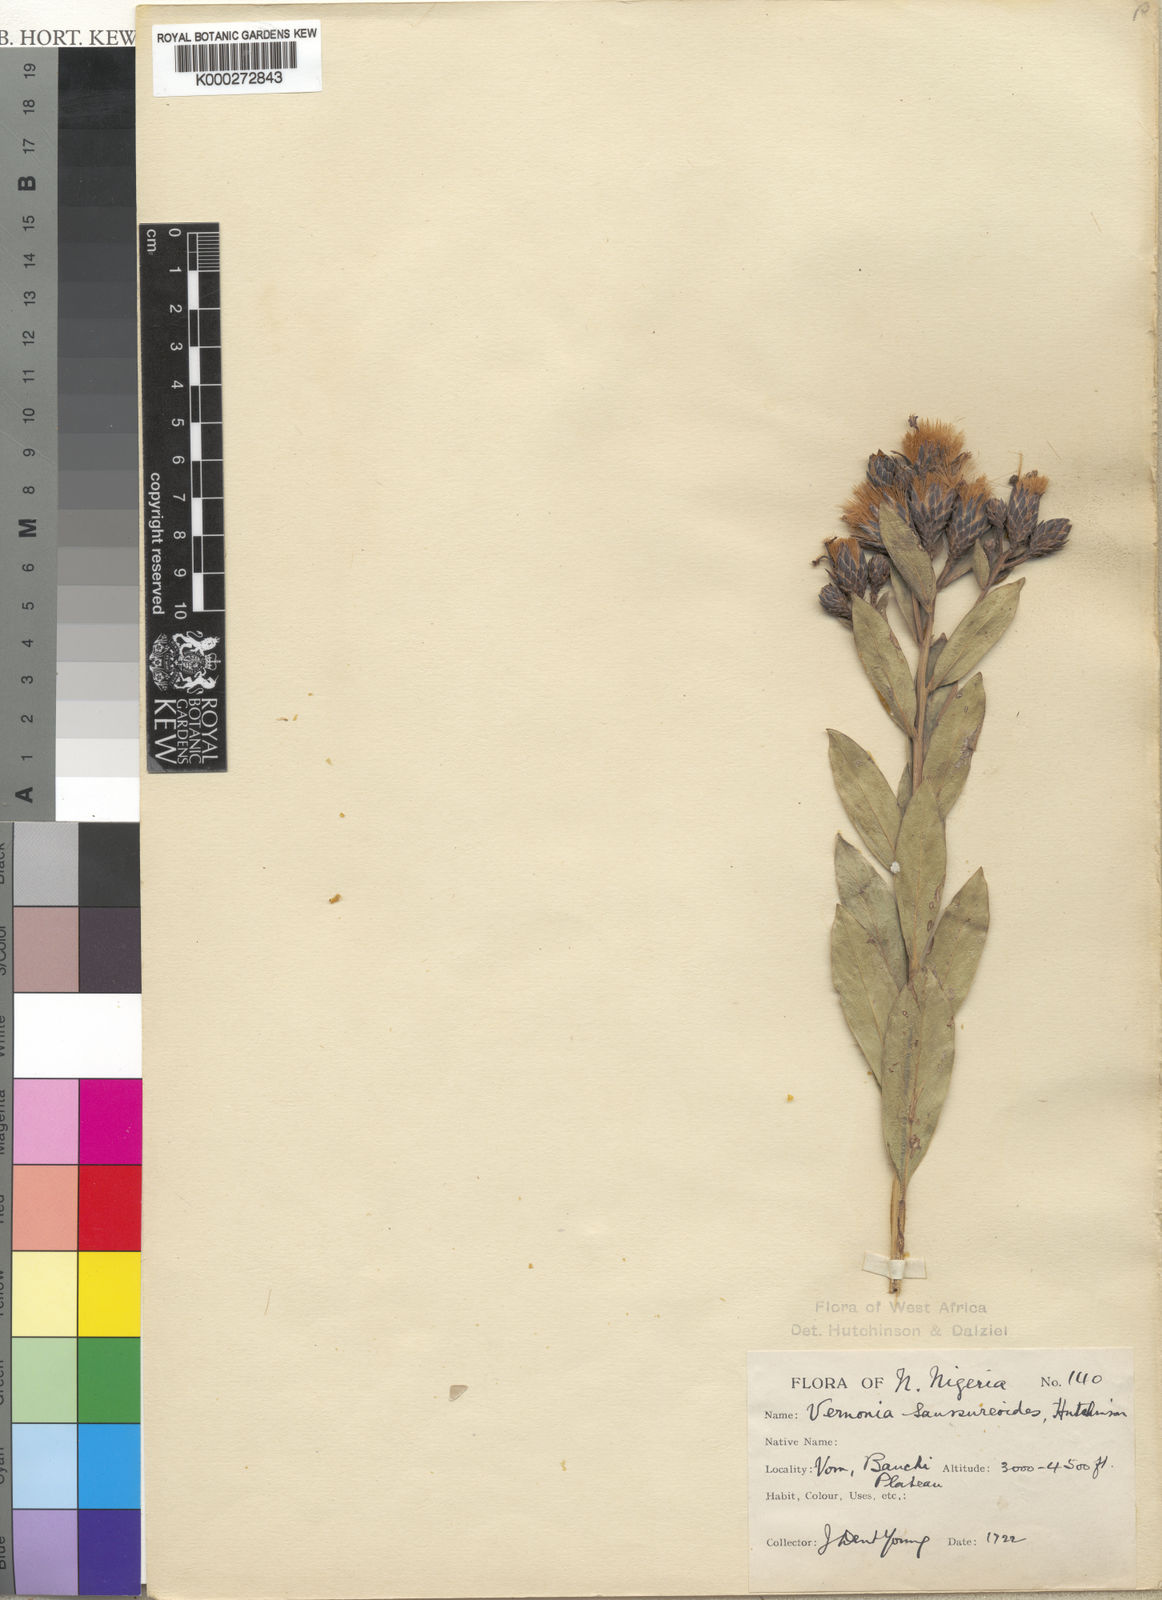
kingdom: Plantae
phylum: Tracheophyta
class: Magnoliopsida
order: Asterales
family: Asteraceae
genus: Linzia
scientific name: Linzia infundibularis
